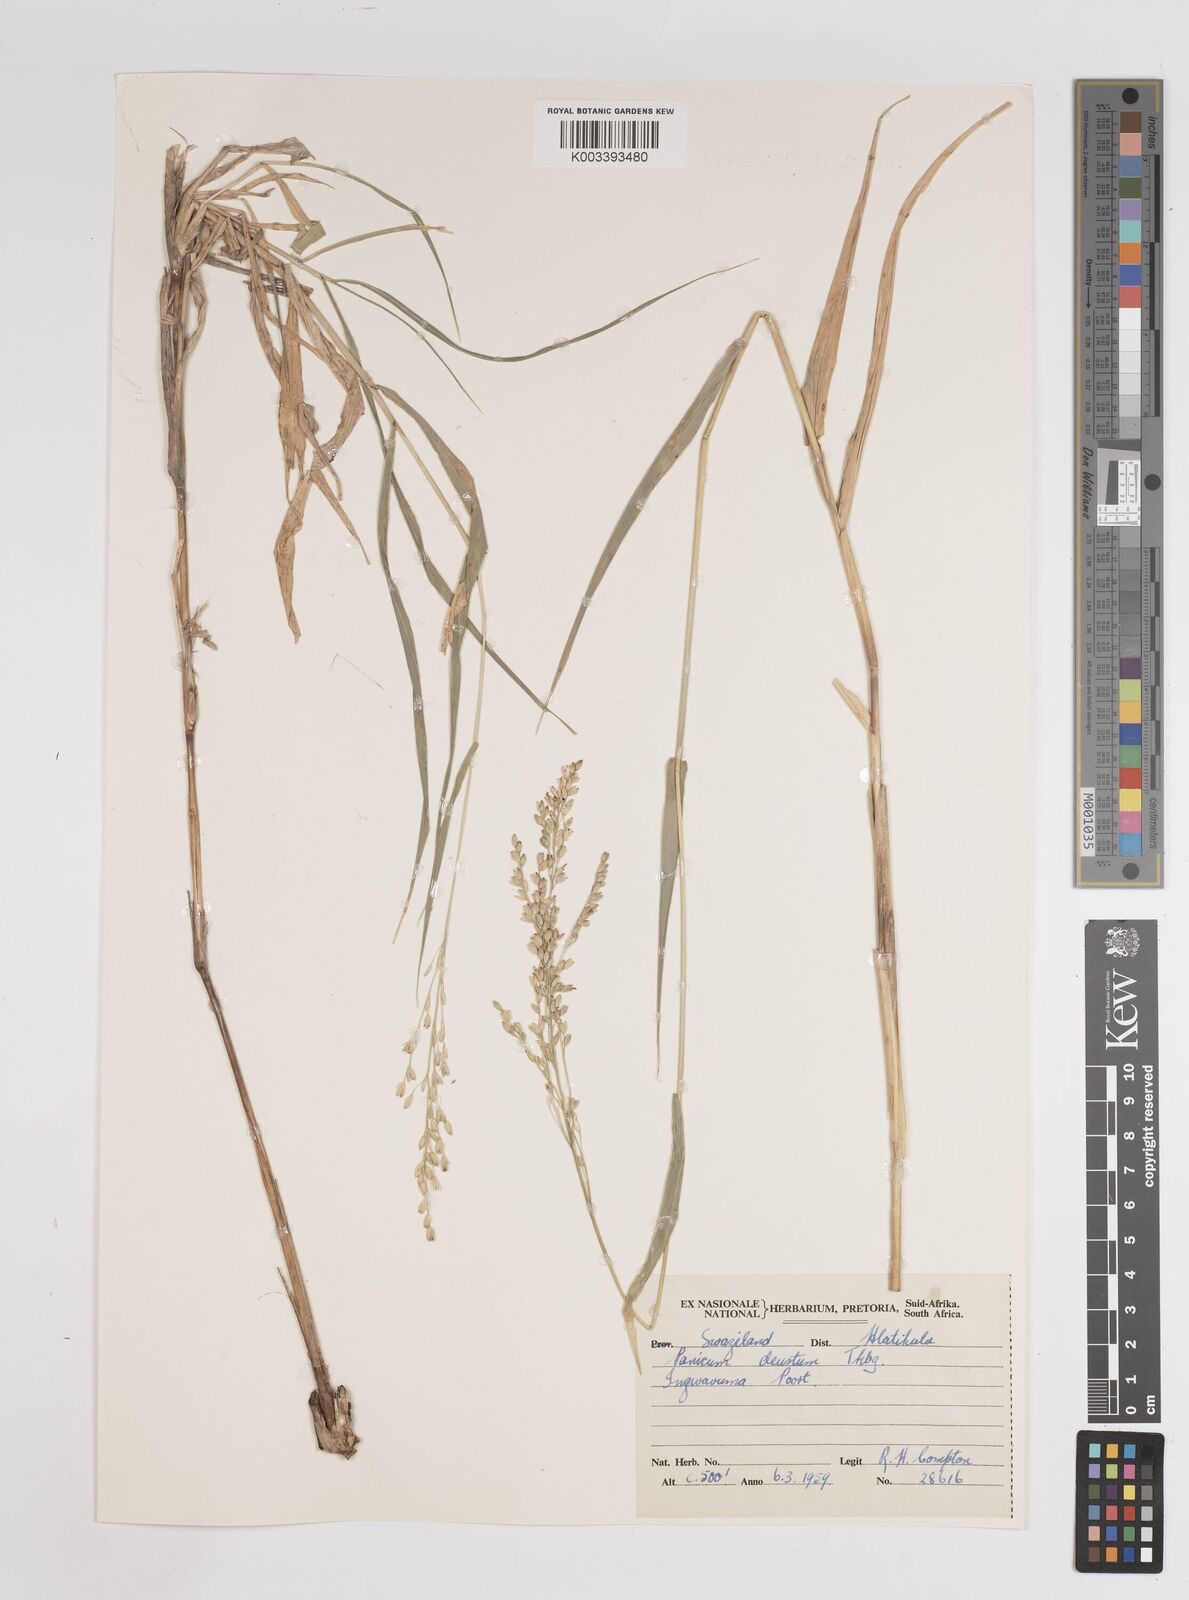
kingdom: Plantae
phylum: Tracheophyta
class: Liliopsida
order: Poales
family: Poaceae
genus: Panicum
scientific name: Panicum deustum
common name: Reed panicum
